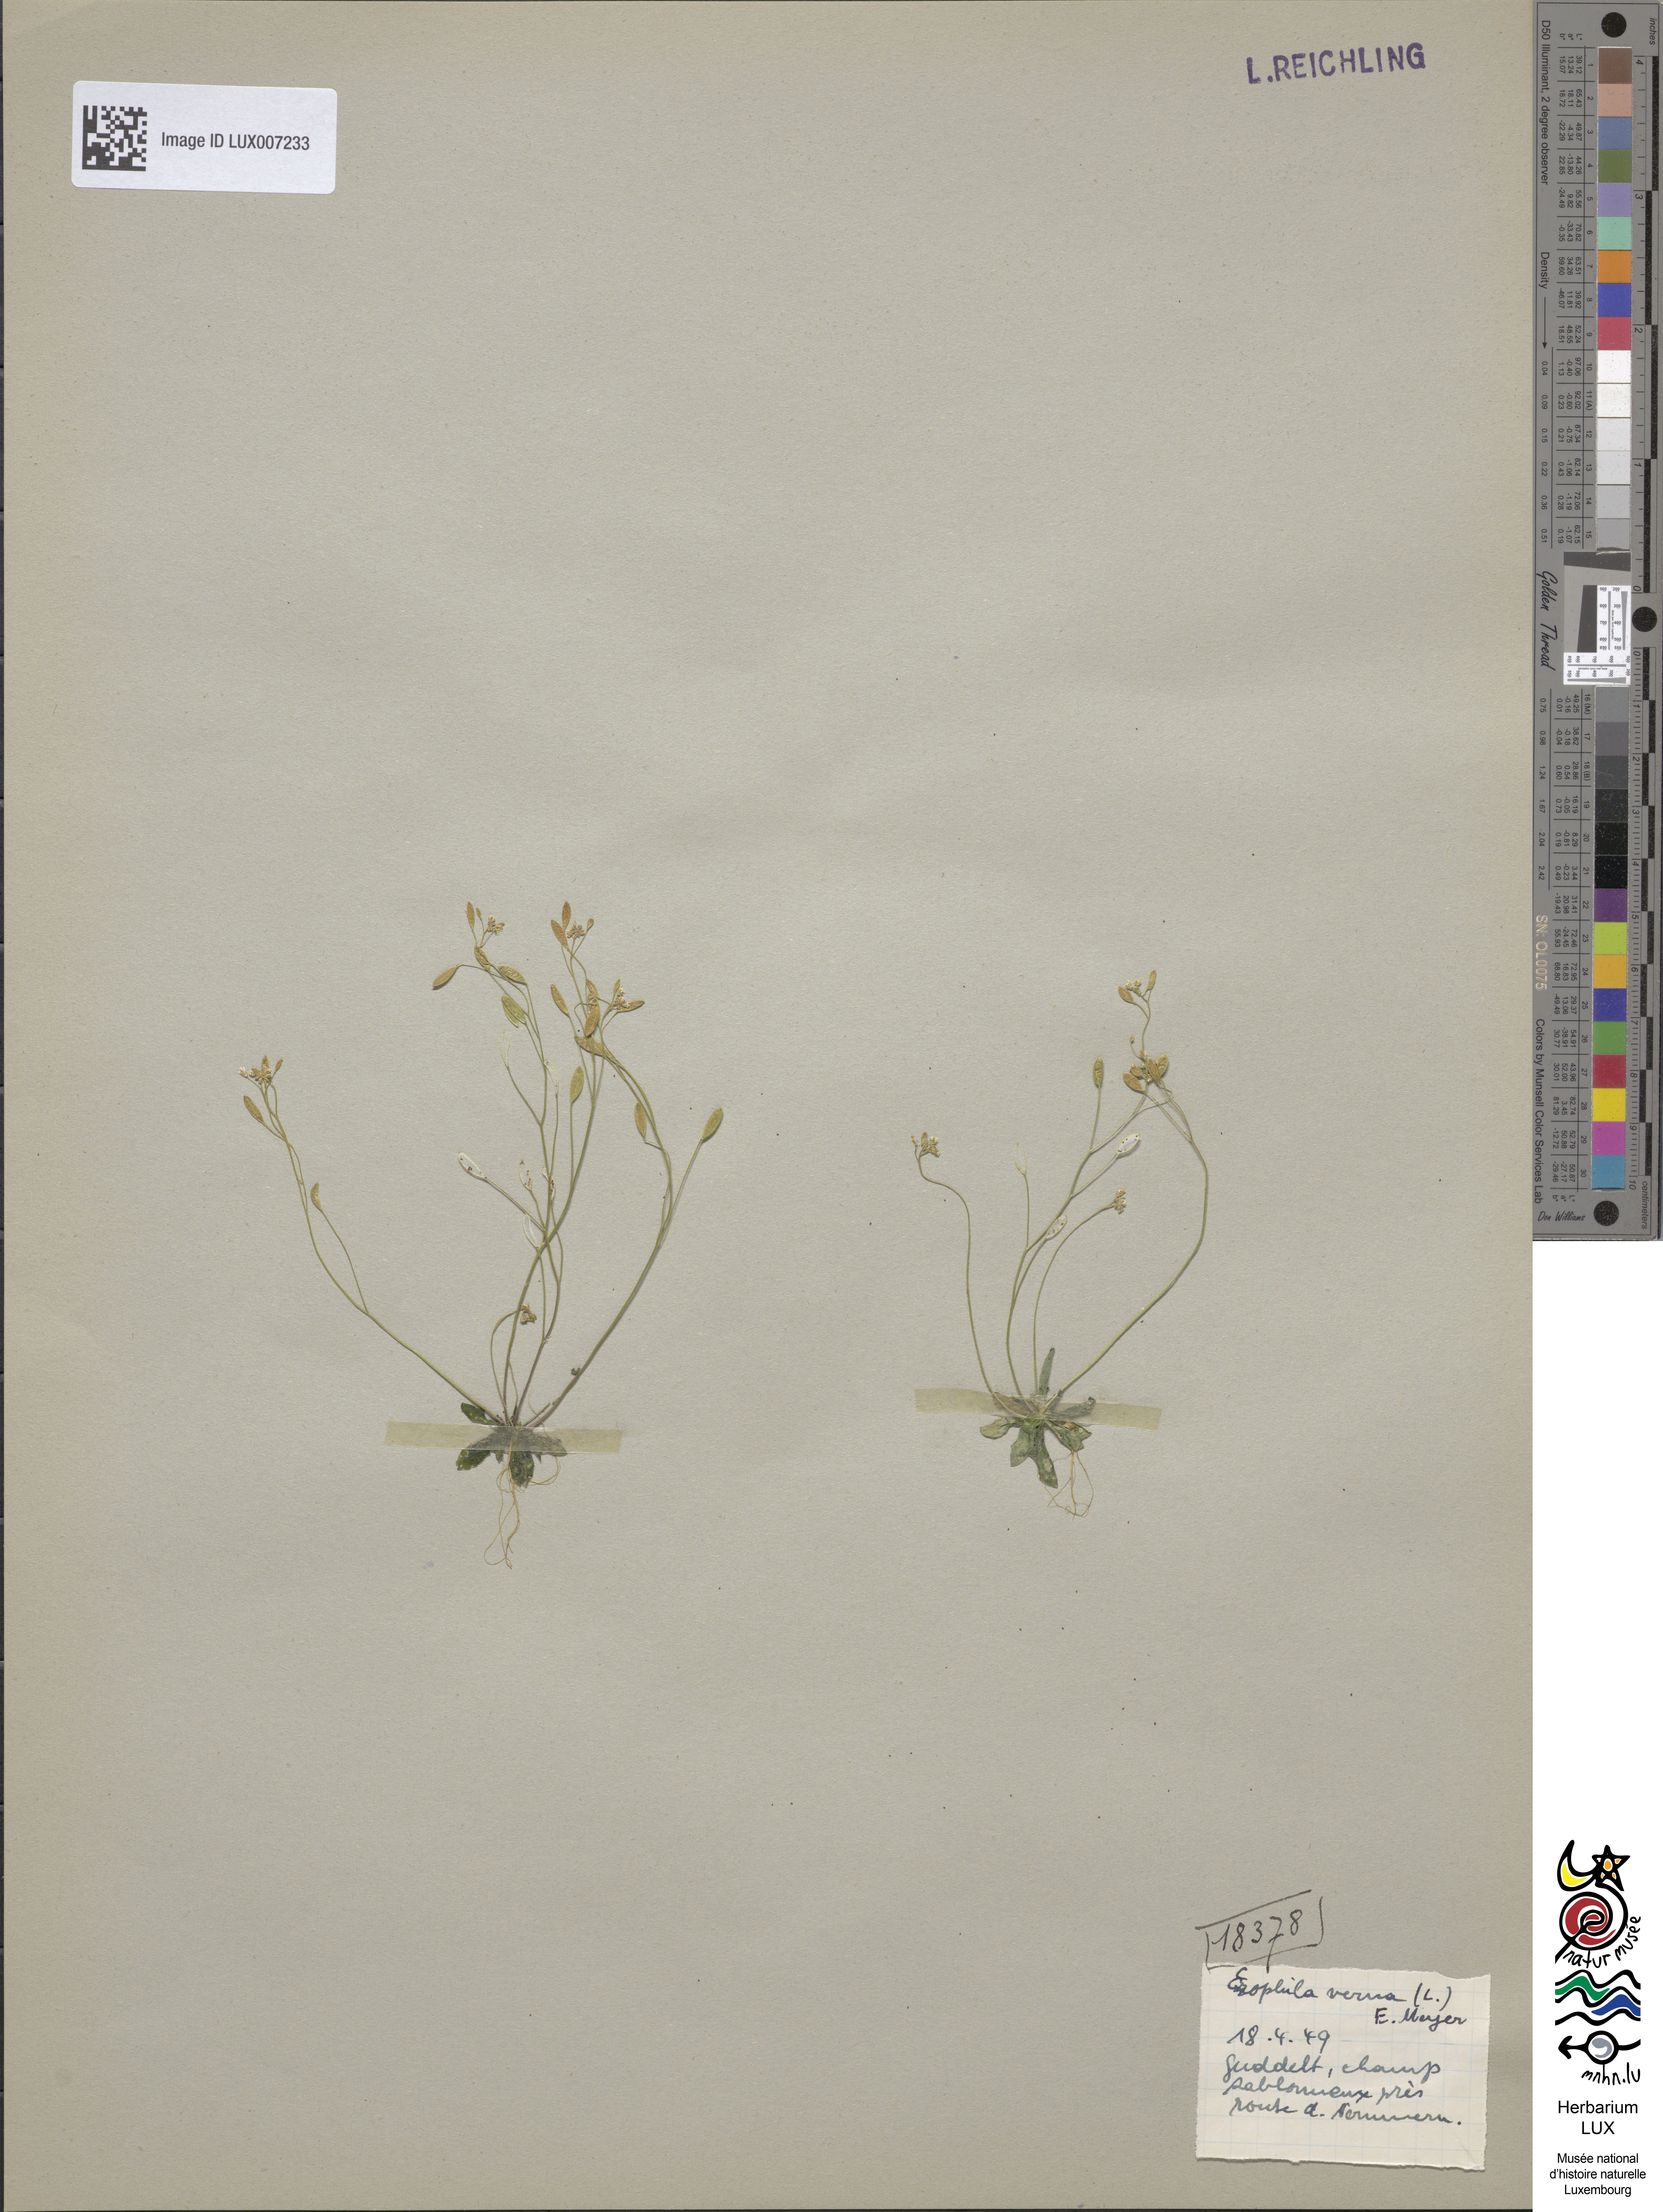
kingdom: Plantae
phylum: Tracheophyta
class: Magnoliopsida
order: Brassicales
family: Brassicaceae
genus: Draba
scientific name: Draba verna
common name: Spring draba
